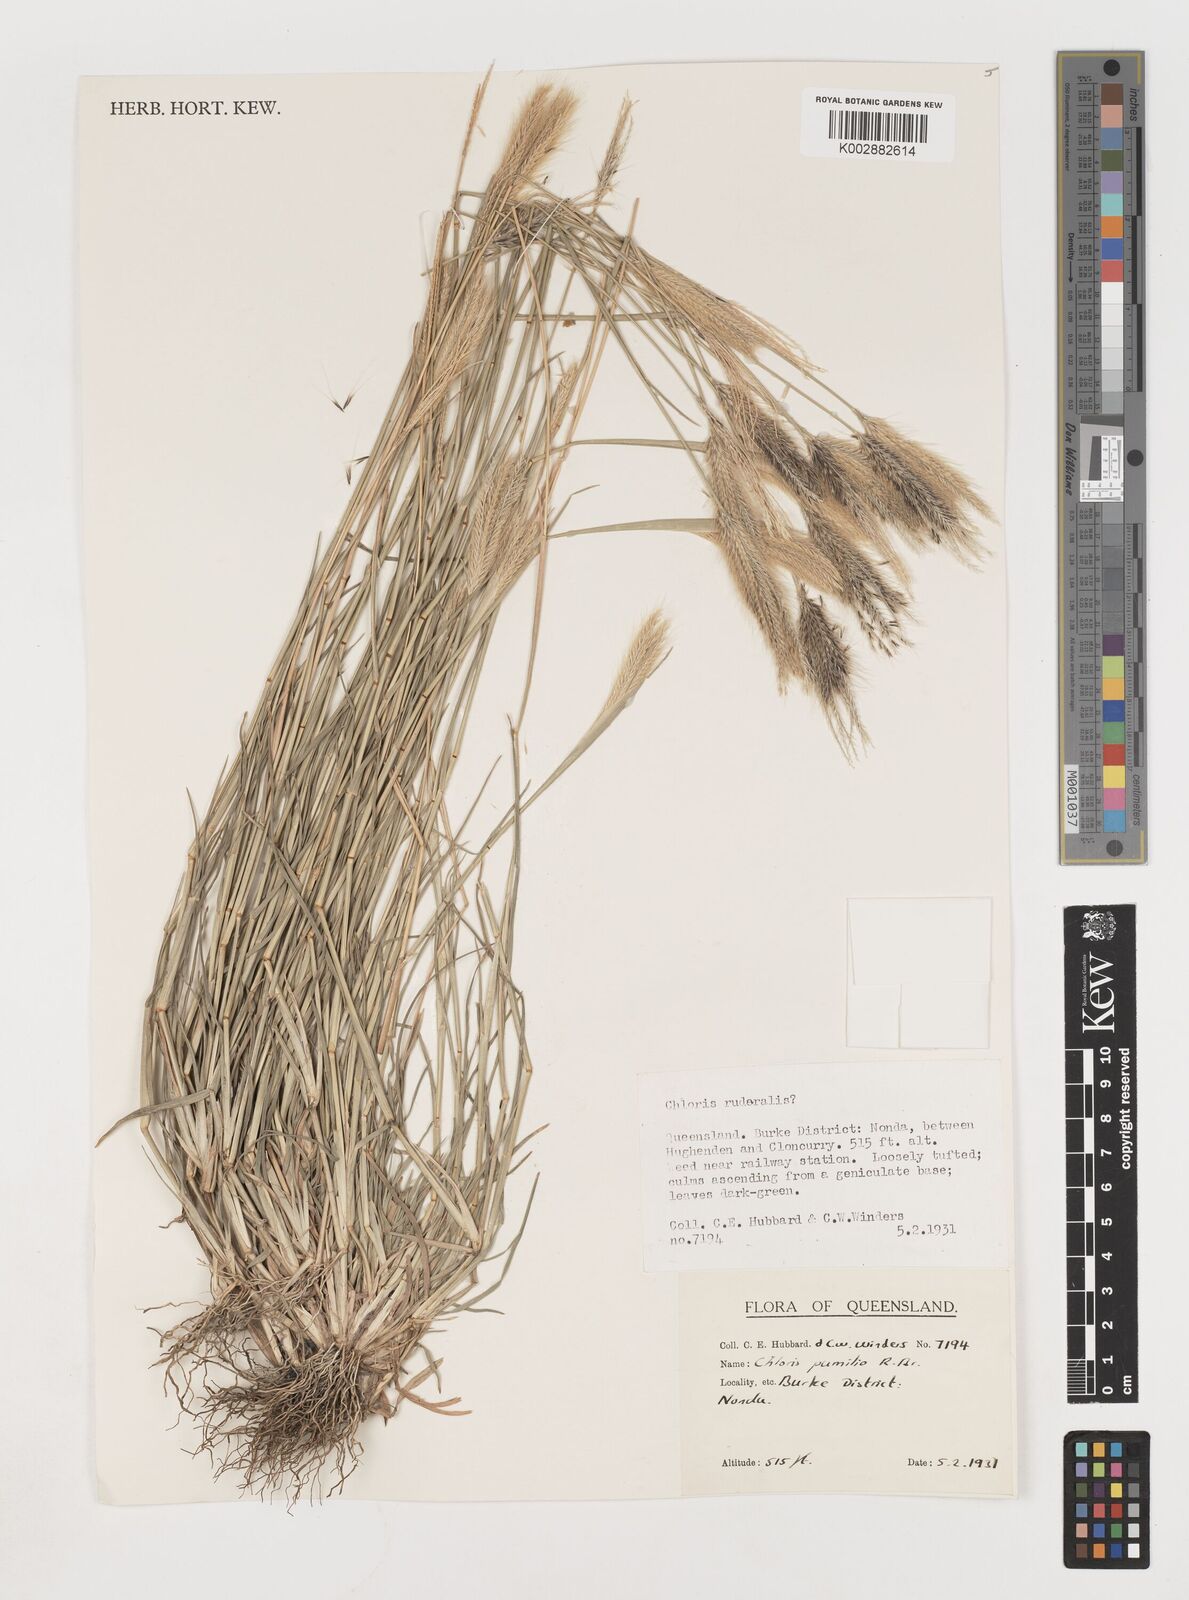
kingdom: Plantae
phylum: Tracheophyta
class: Liliopsida
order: Poales
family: Poaceae
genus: Chloris
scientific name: Chloris pumilio
